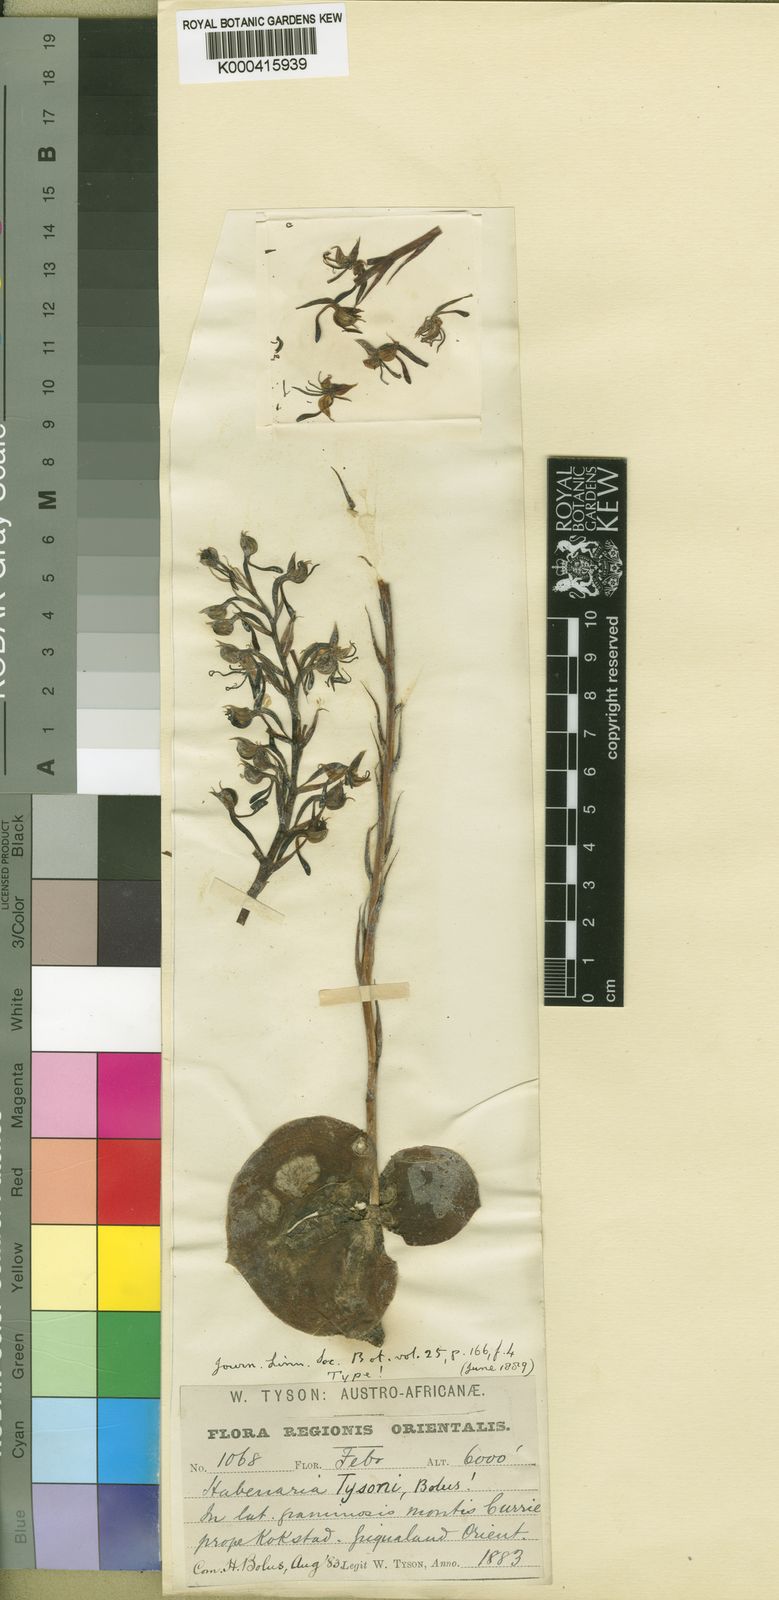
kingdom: Plantae
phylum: Tracheophyta
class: Liliopsida
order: Asparagales
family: Orchidaceae
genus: Habenaria
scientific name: Habenaria tysonii
